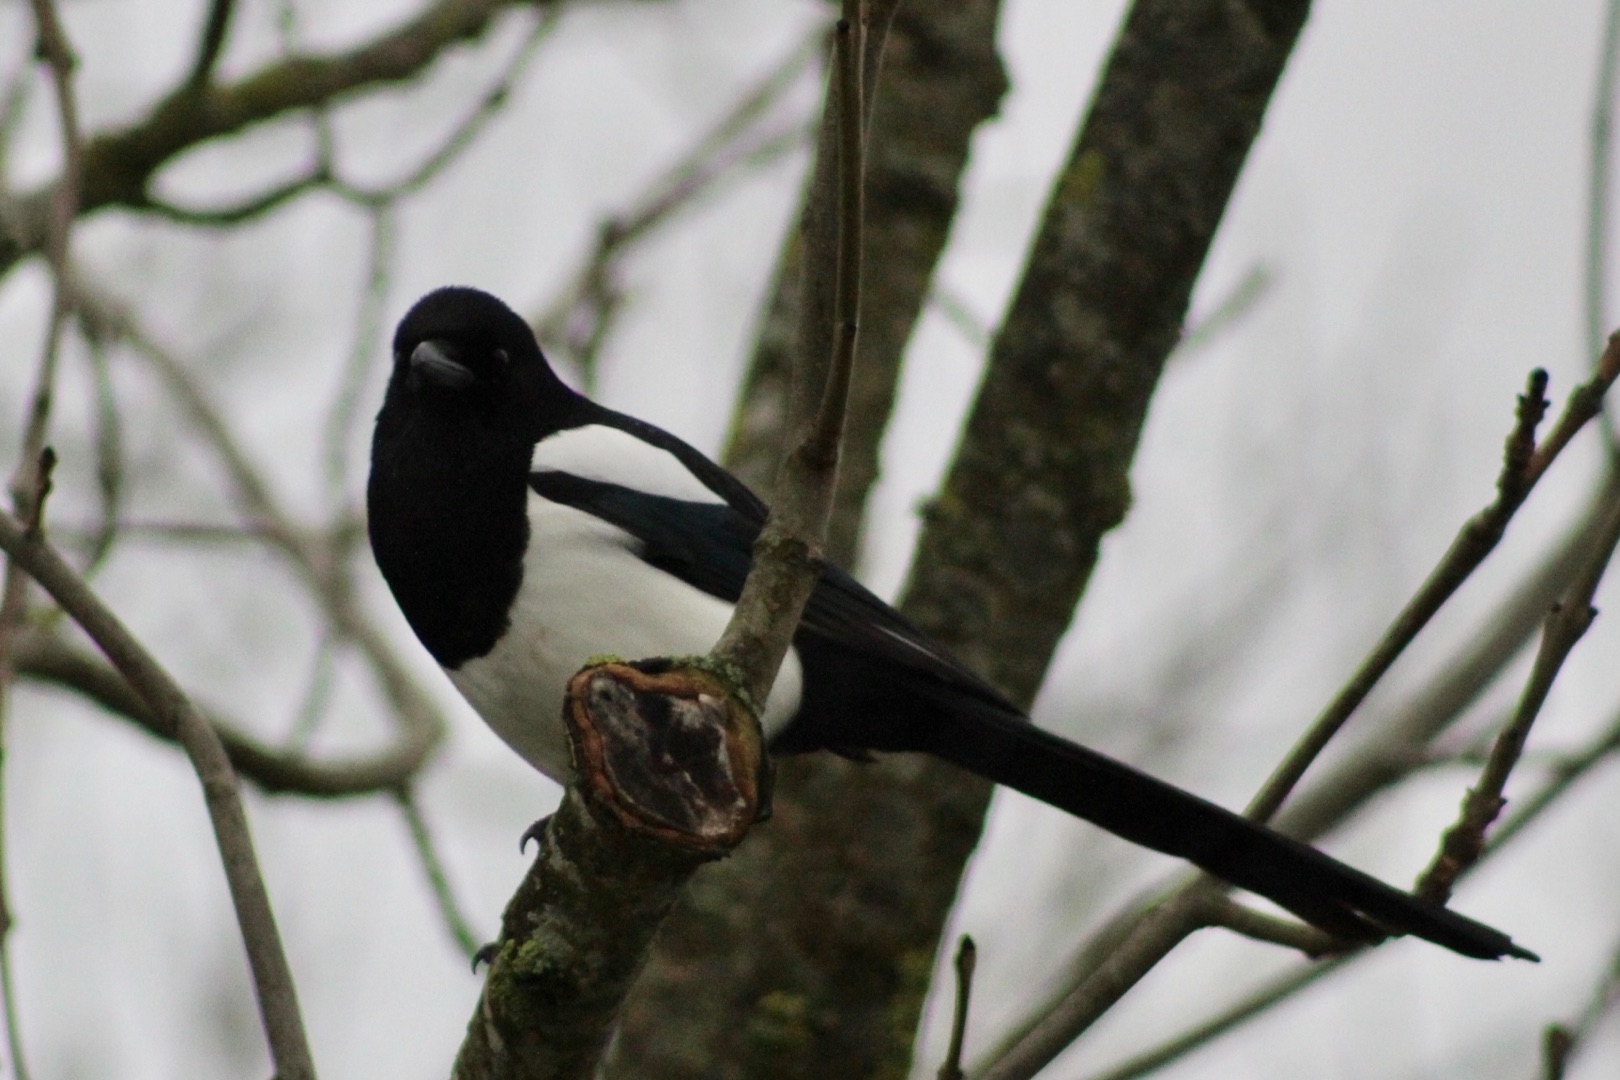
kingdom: Animalia
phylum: Chordata
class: Aves
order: Passeriformes
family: Corvidae
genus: Pica
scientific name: Pica pica
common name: Husskade
